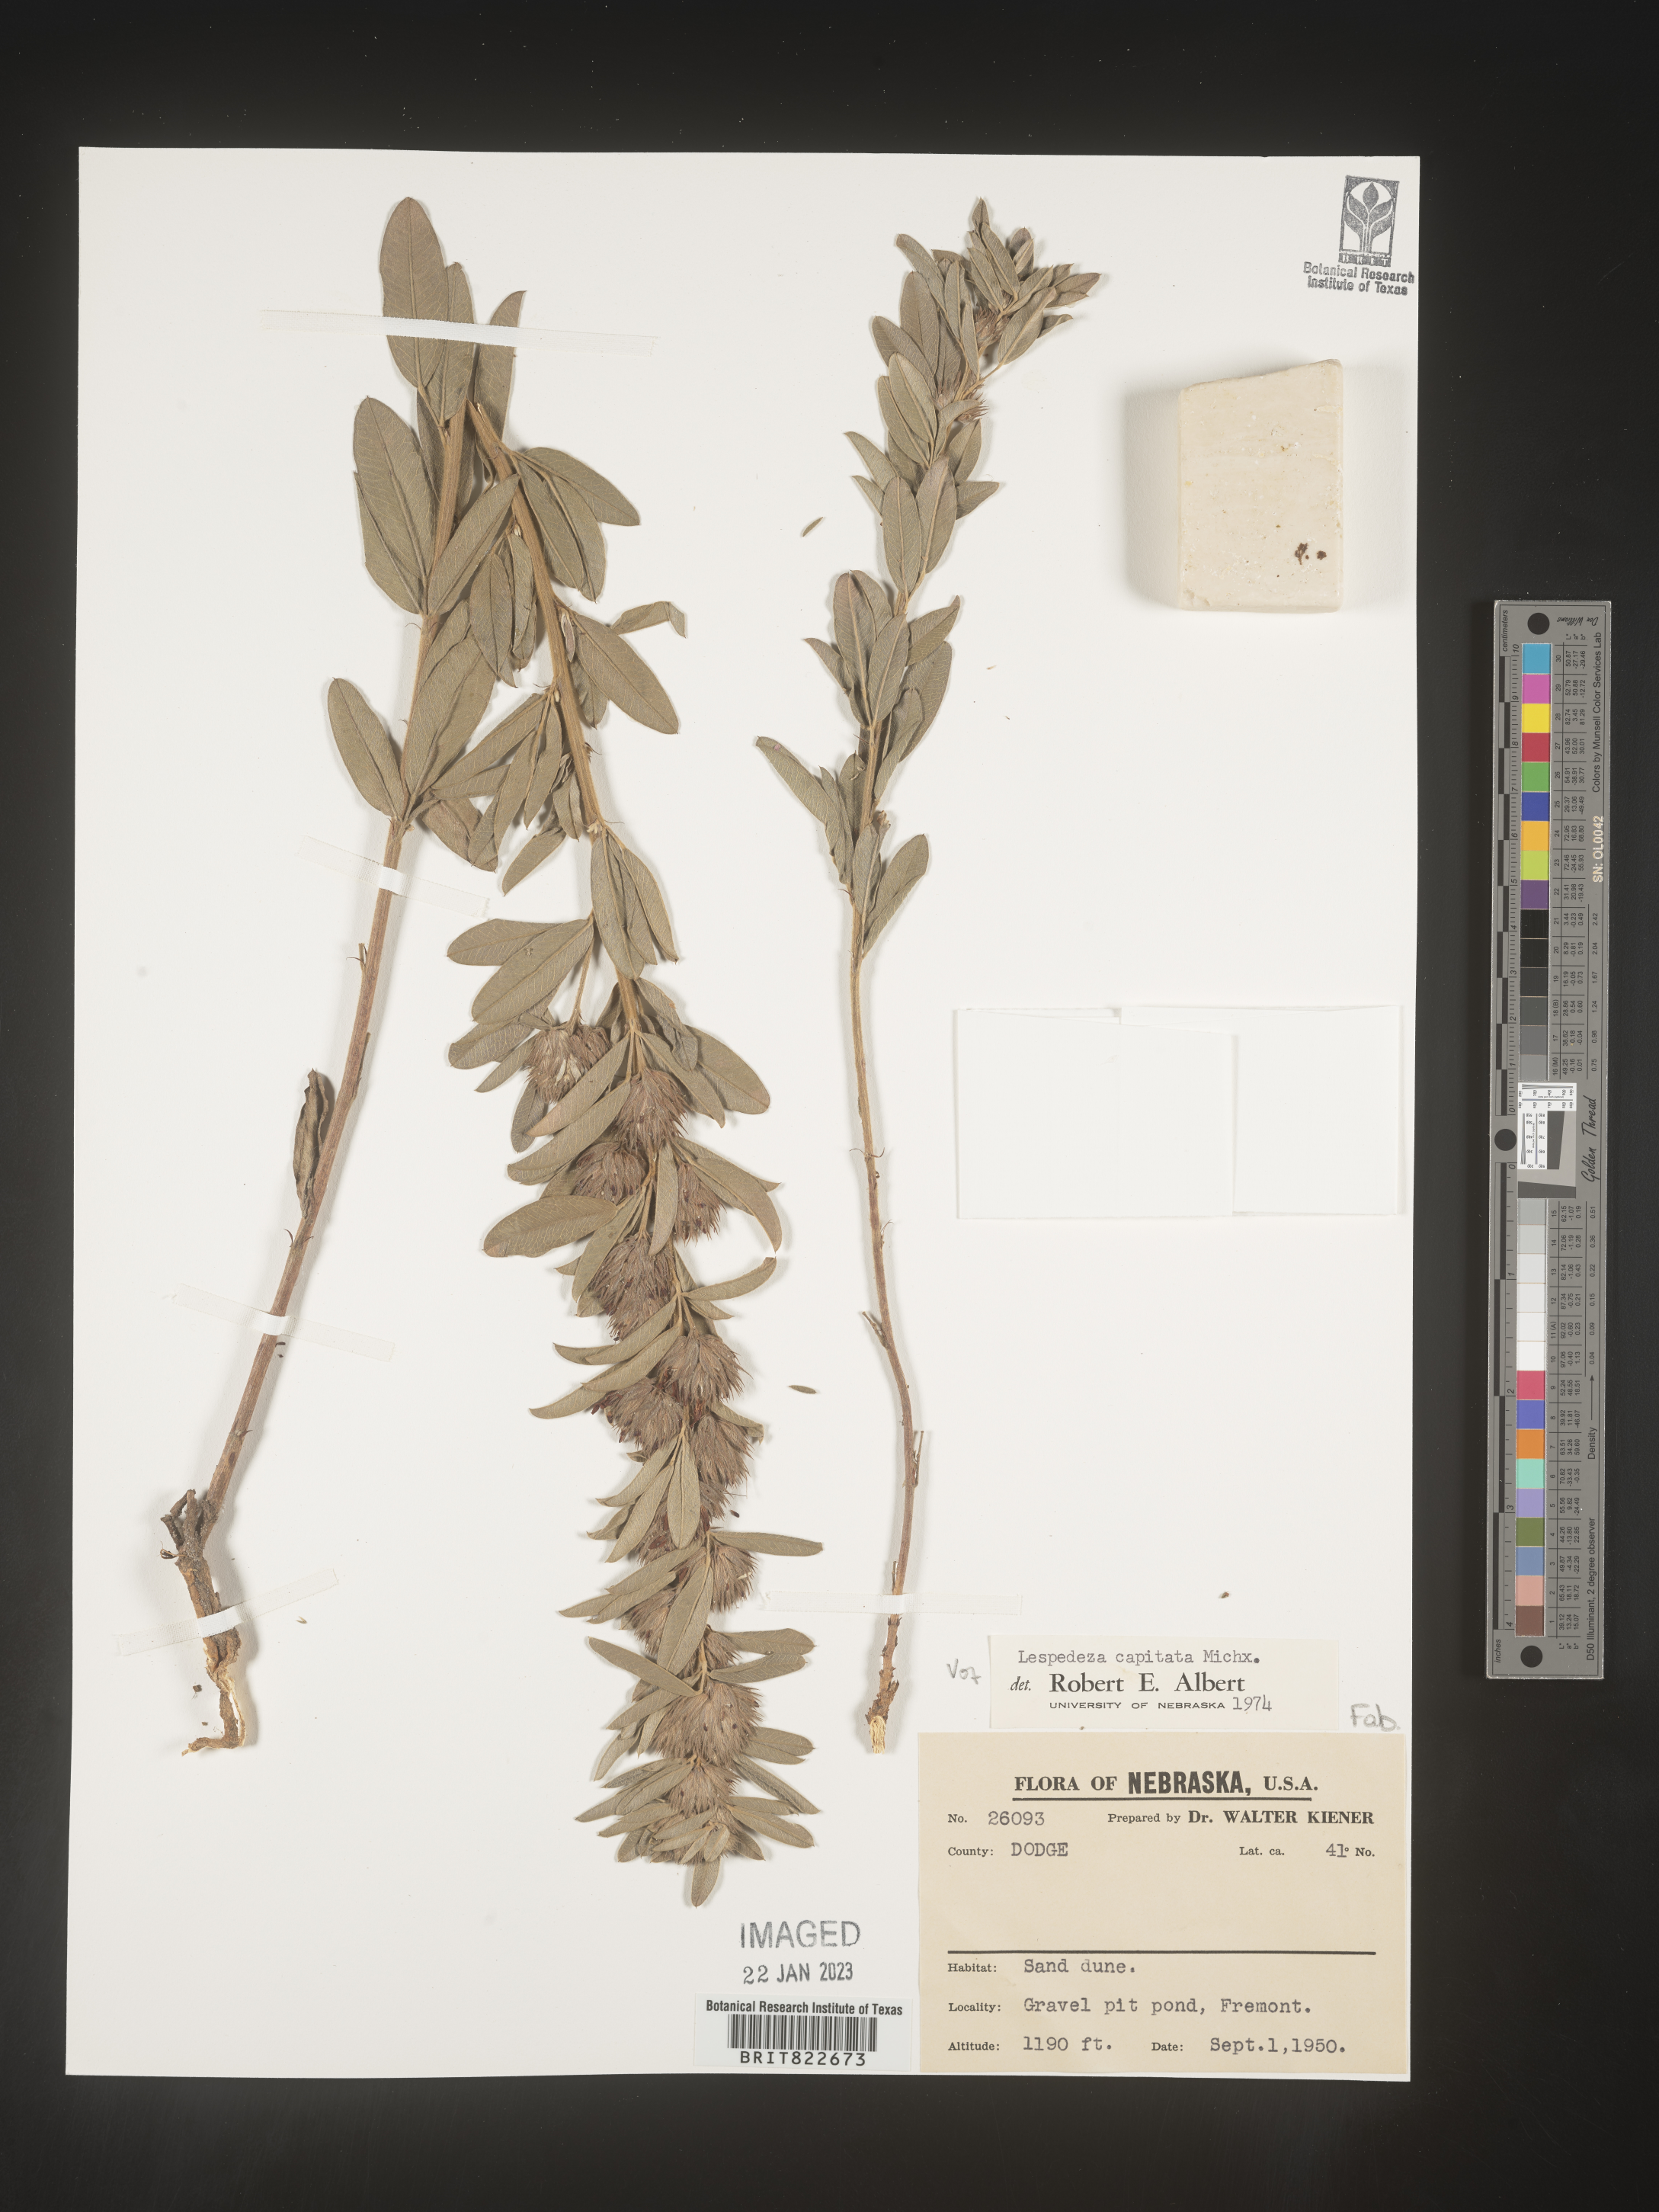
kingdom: Plantae
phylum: Tracheophyta
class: Magnoliopsida
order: Fabales
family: Fabaceae
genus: Lespedeza
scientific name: Lespedeza capitata
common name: Dusty clover
